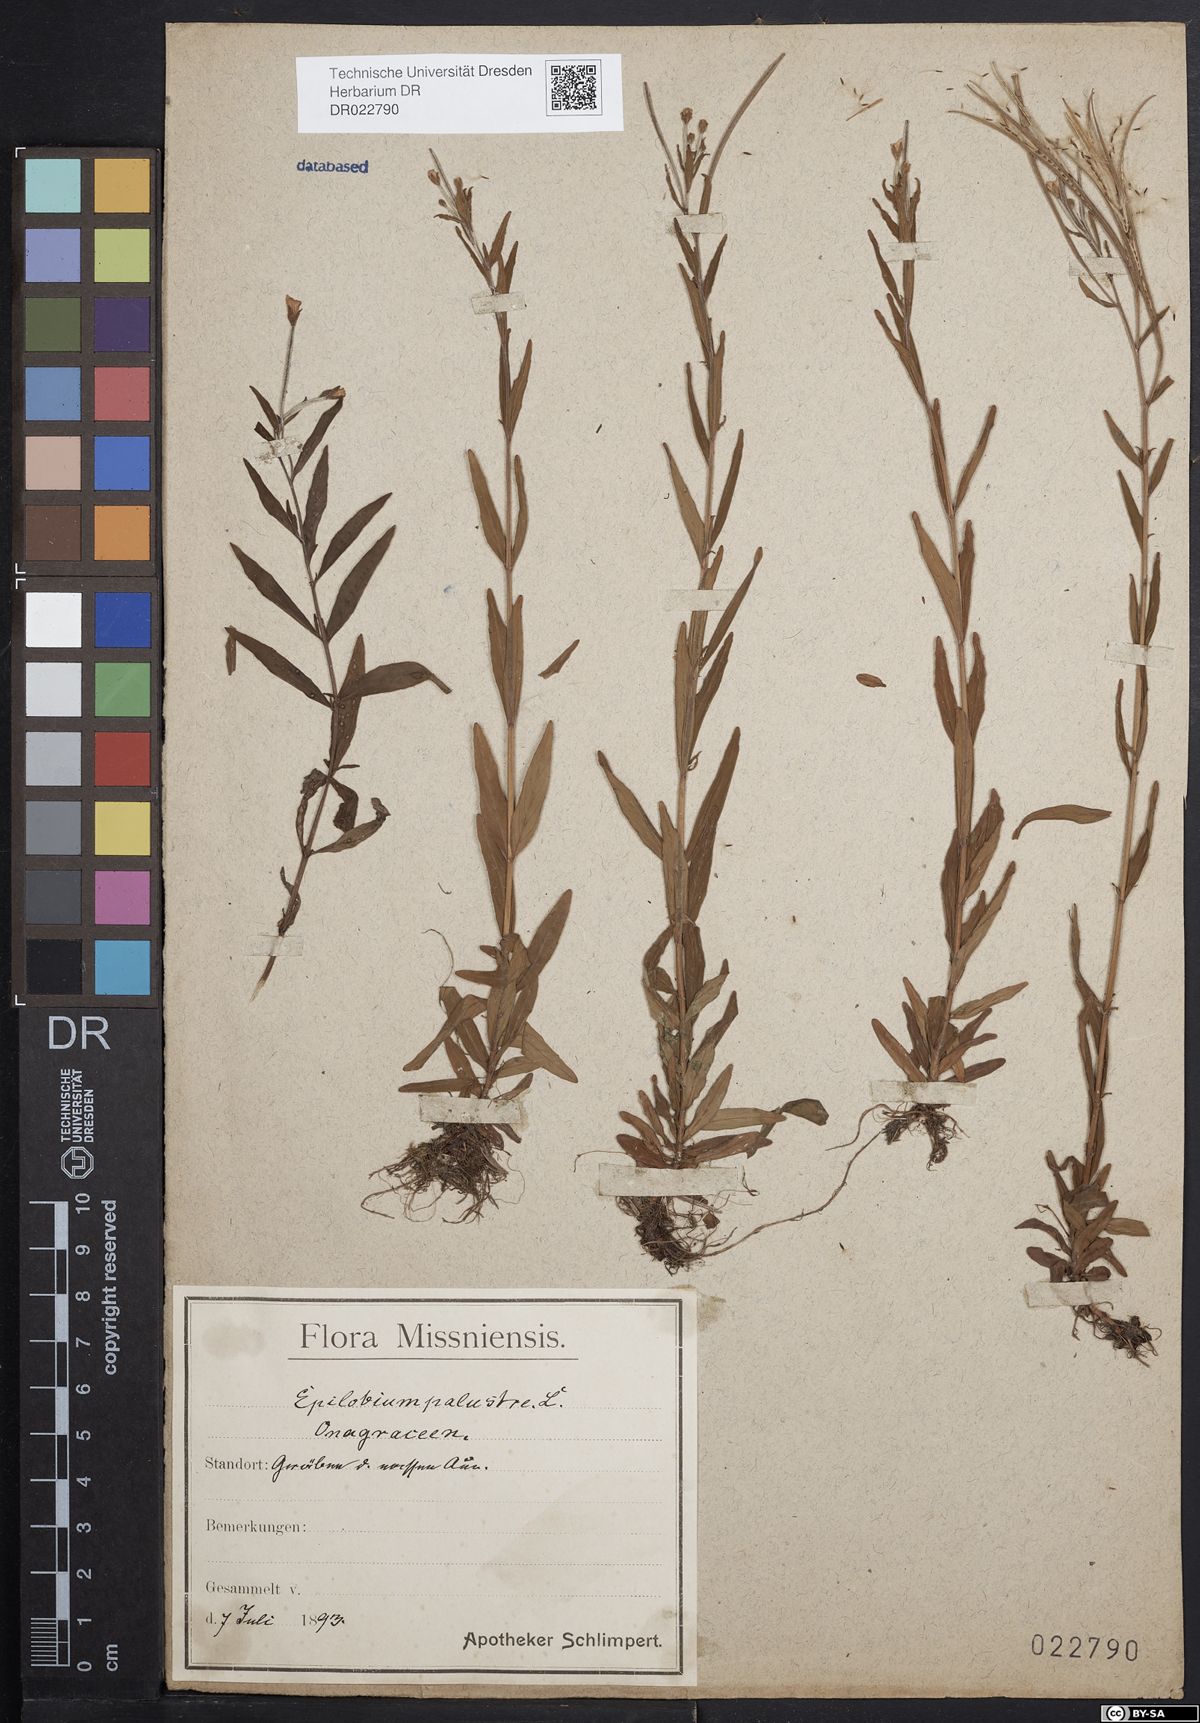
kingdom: Plantae
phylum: Tracheophyta
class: Magnoliopsida
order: Myrtales
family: Onagraceae
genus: Epilobium
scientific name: Epilobium palustre
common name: Marsh willowherb
